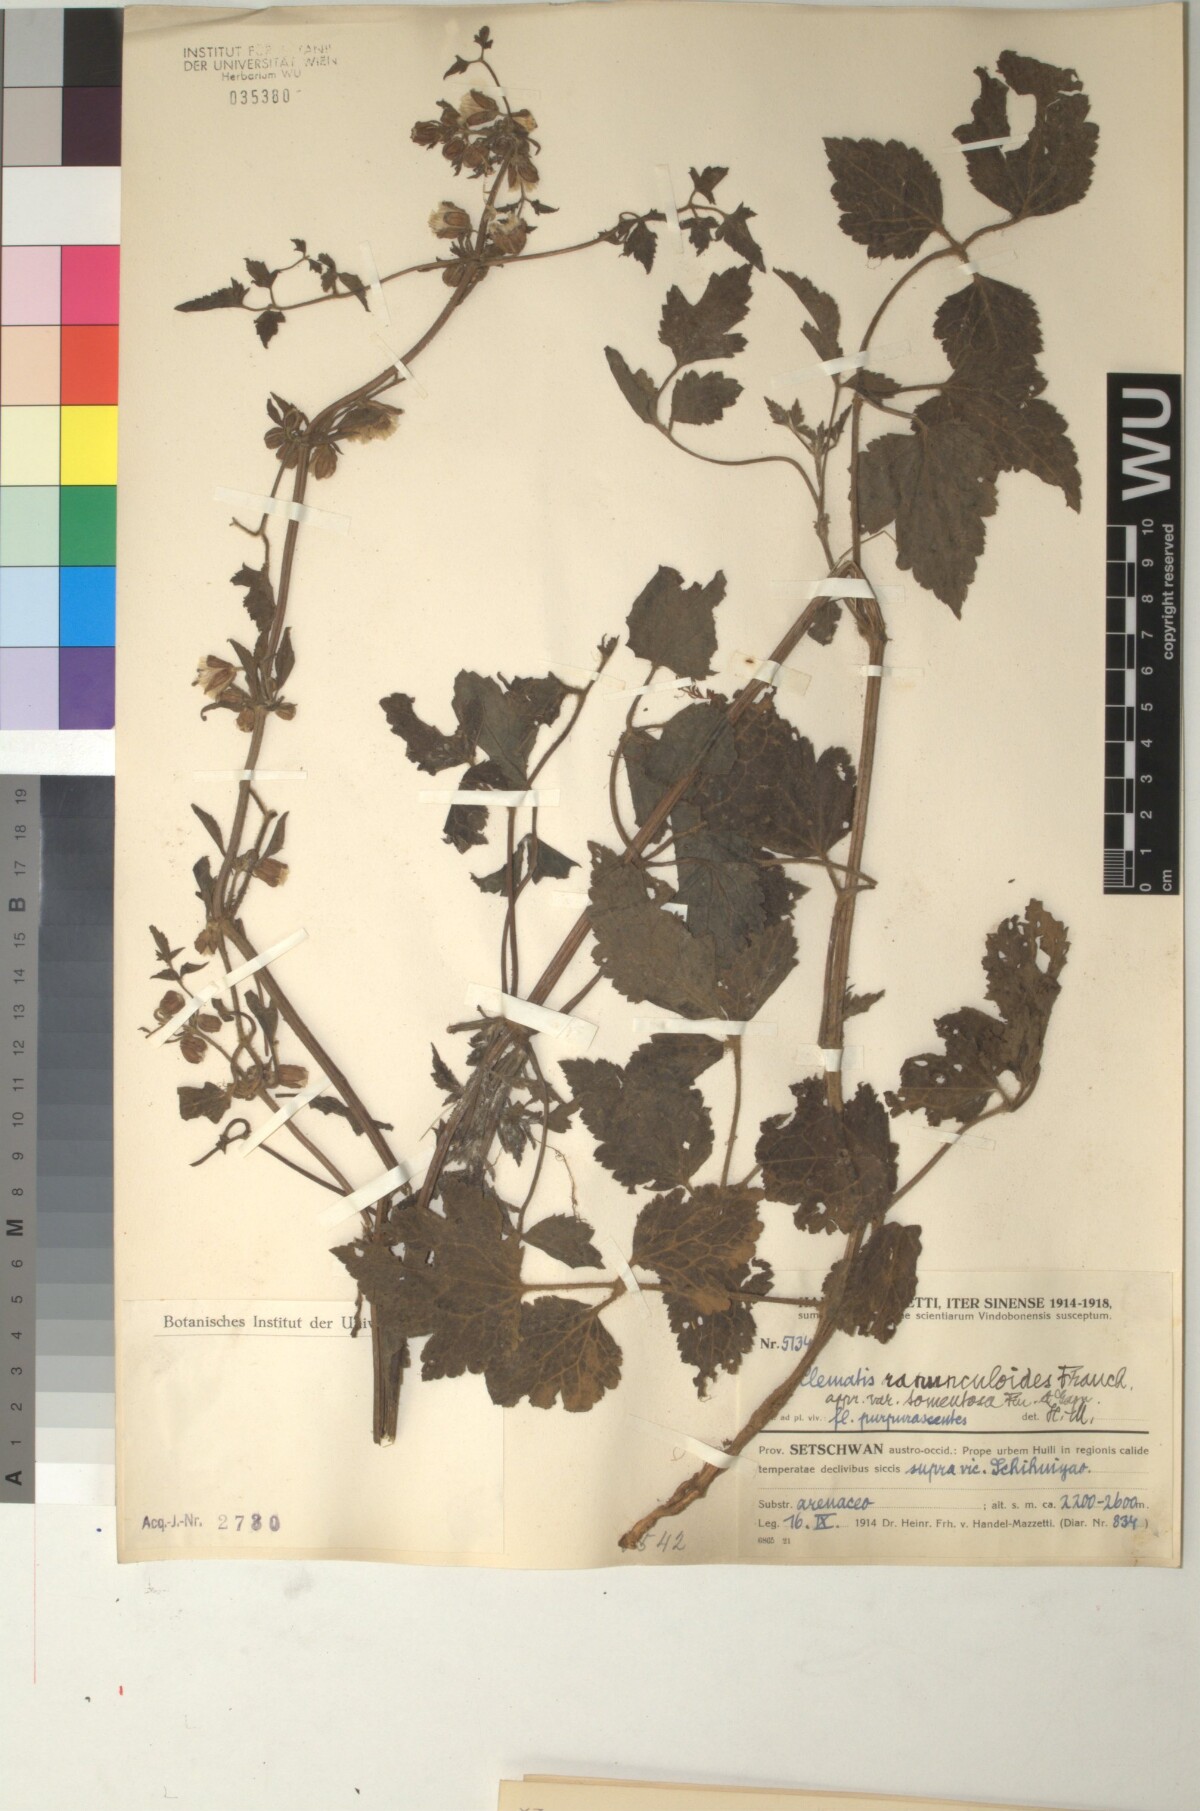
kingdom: Plantae
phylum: Tracheophyta
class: Magnoliopsida
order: Ranunculales
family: Ranunculaceae
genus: Clematis
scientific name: Clematis pinchuanensis
